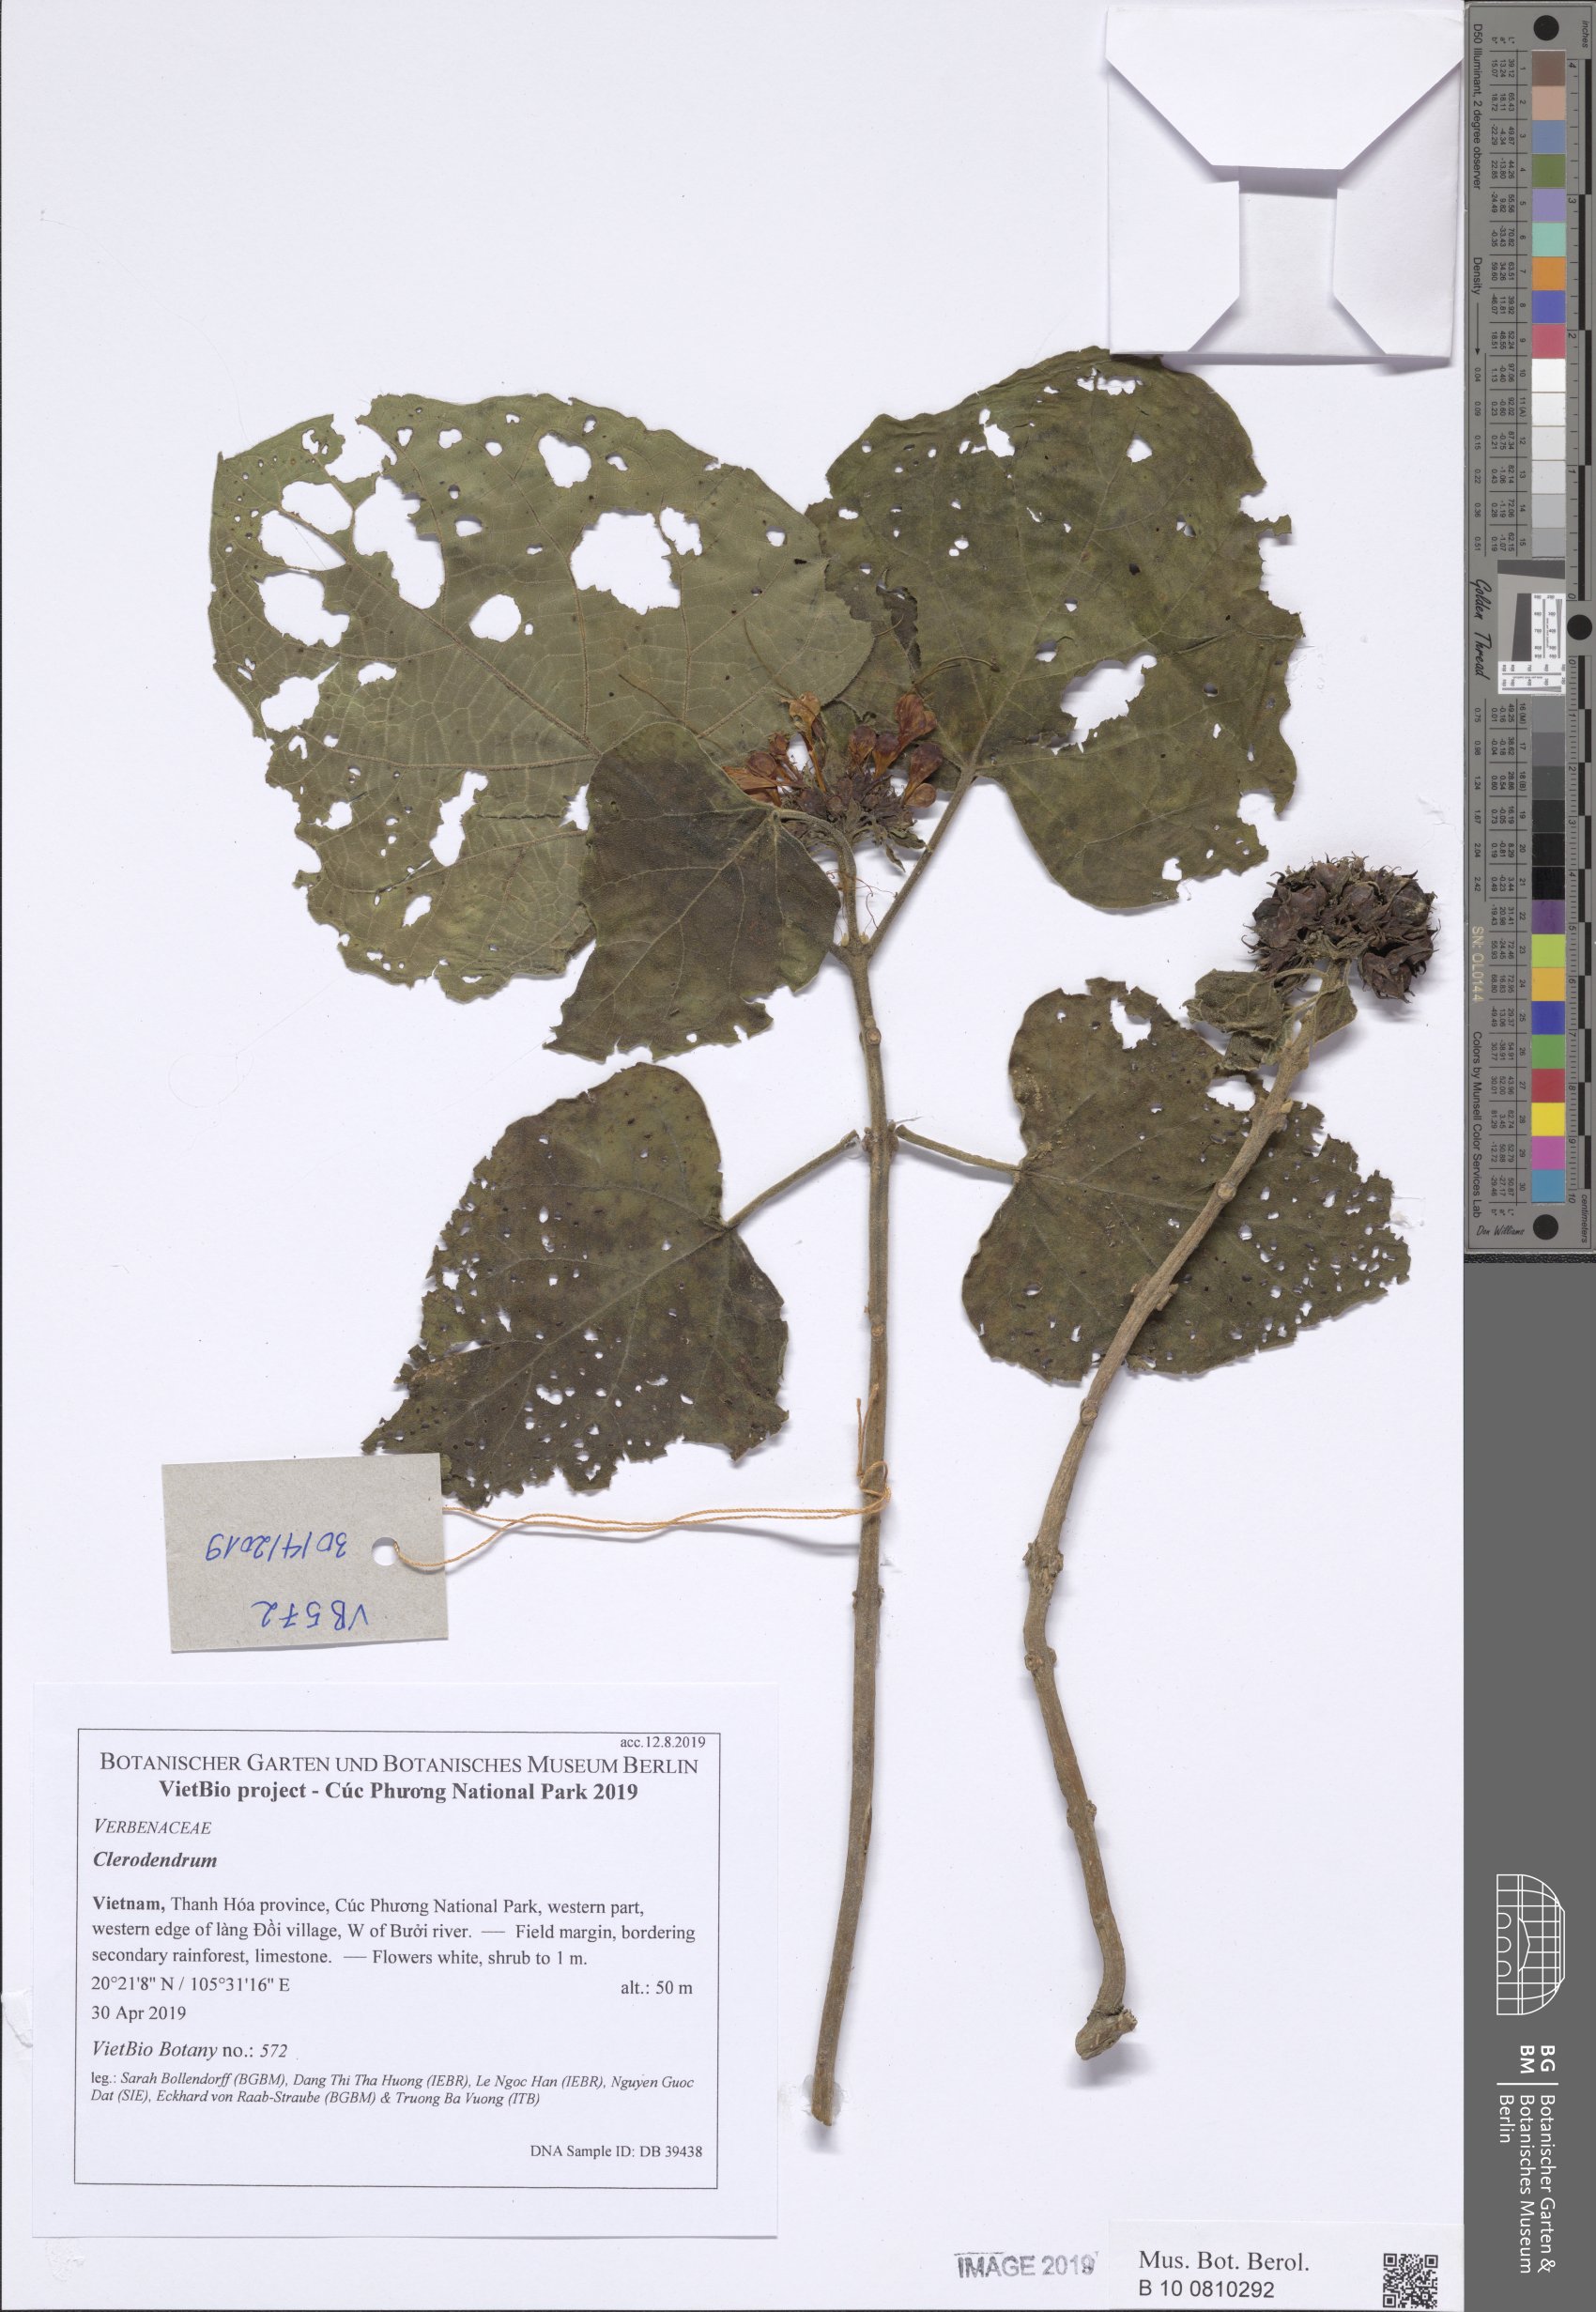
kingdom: Plantae
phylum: Tracheophyta
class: Magnoliopsida
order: Lamiales
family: Lamiaceae
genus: Clerodendrum
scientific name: Clerodendrum chinense
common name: Stickbush
